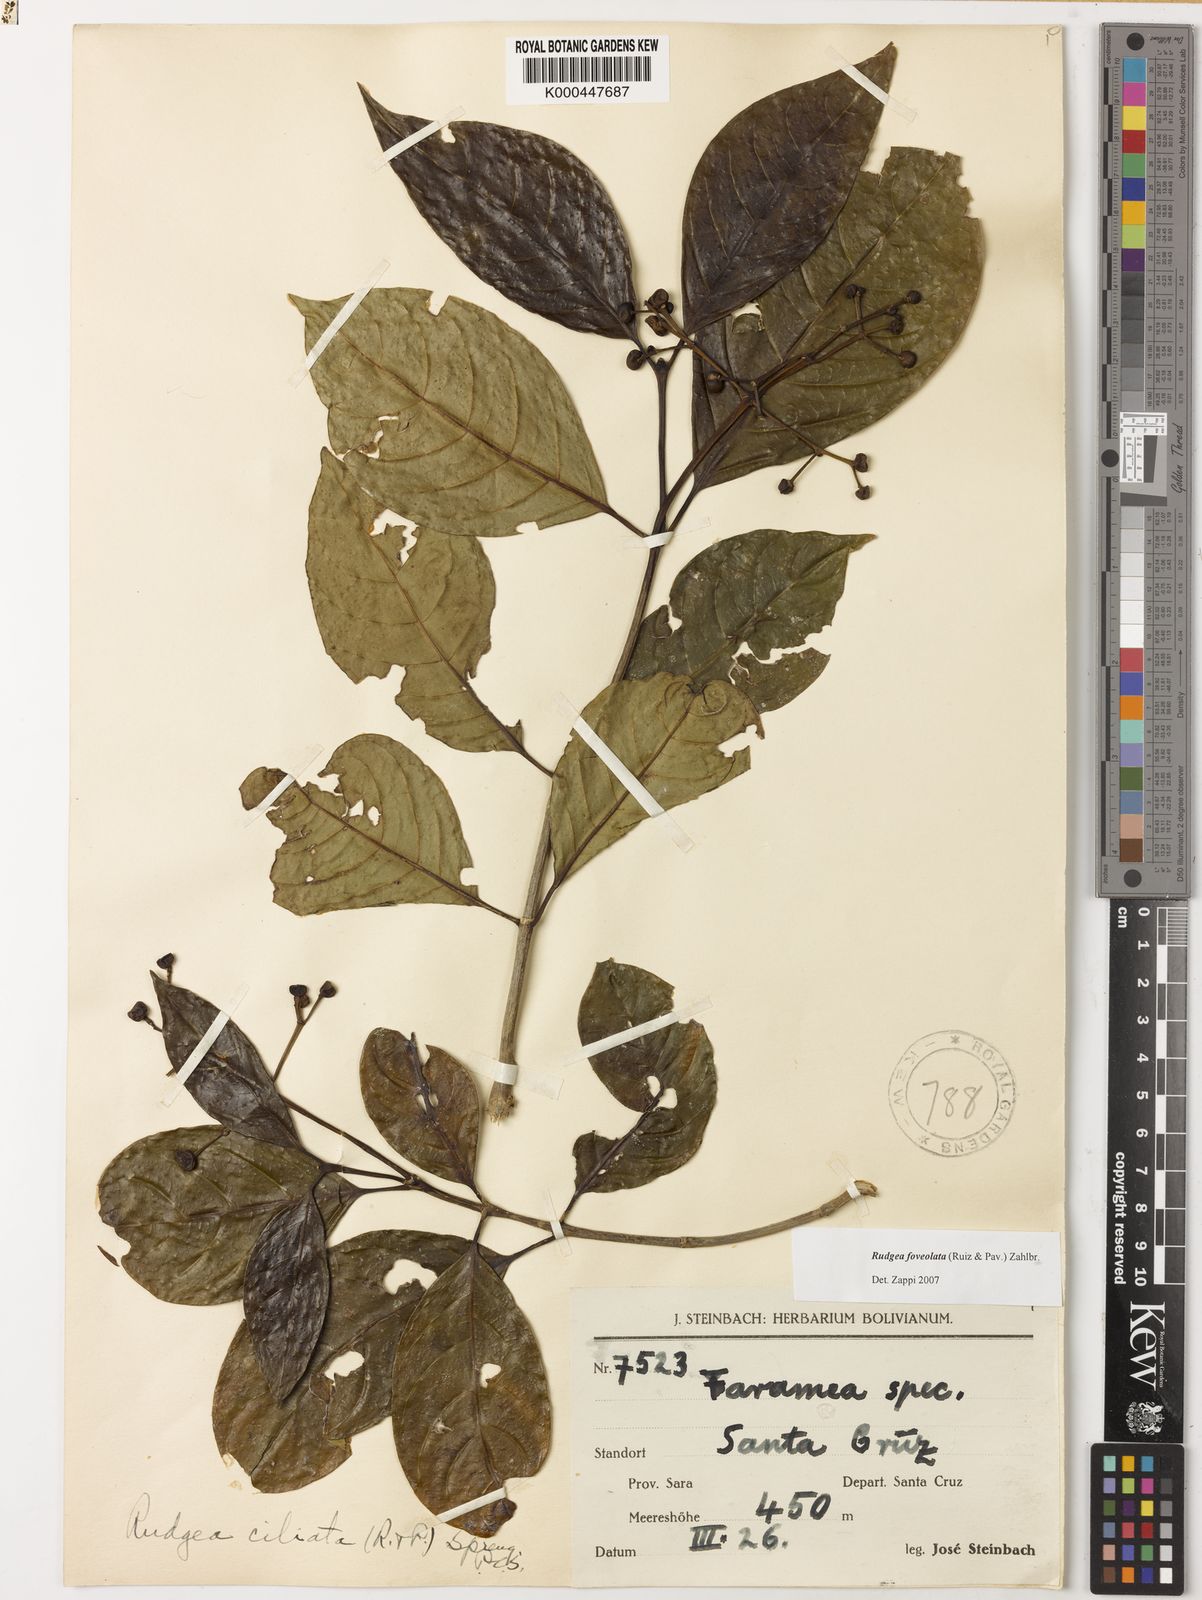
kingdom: Plantae
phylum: Tracheophyta
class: Magnoliopsida
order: Gentianales
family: Rubiaceae
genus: Rudgea
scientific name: Rudgea foveolata
